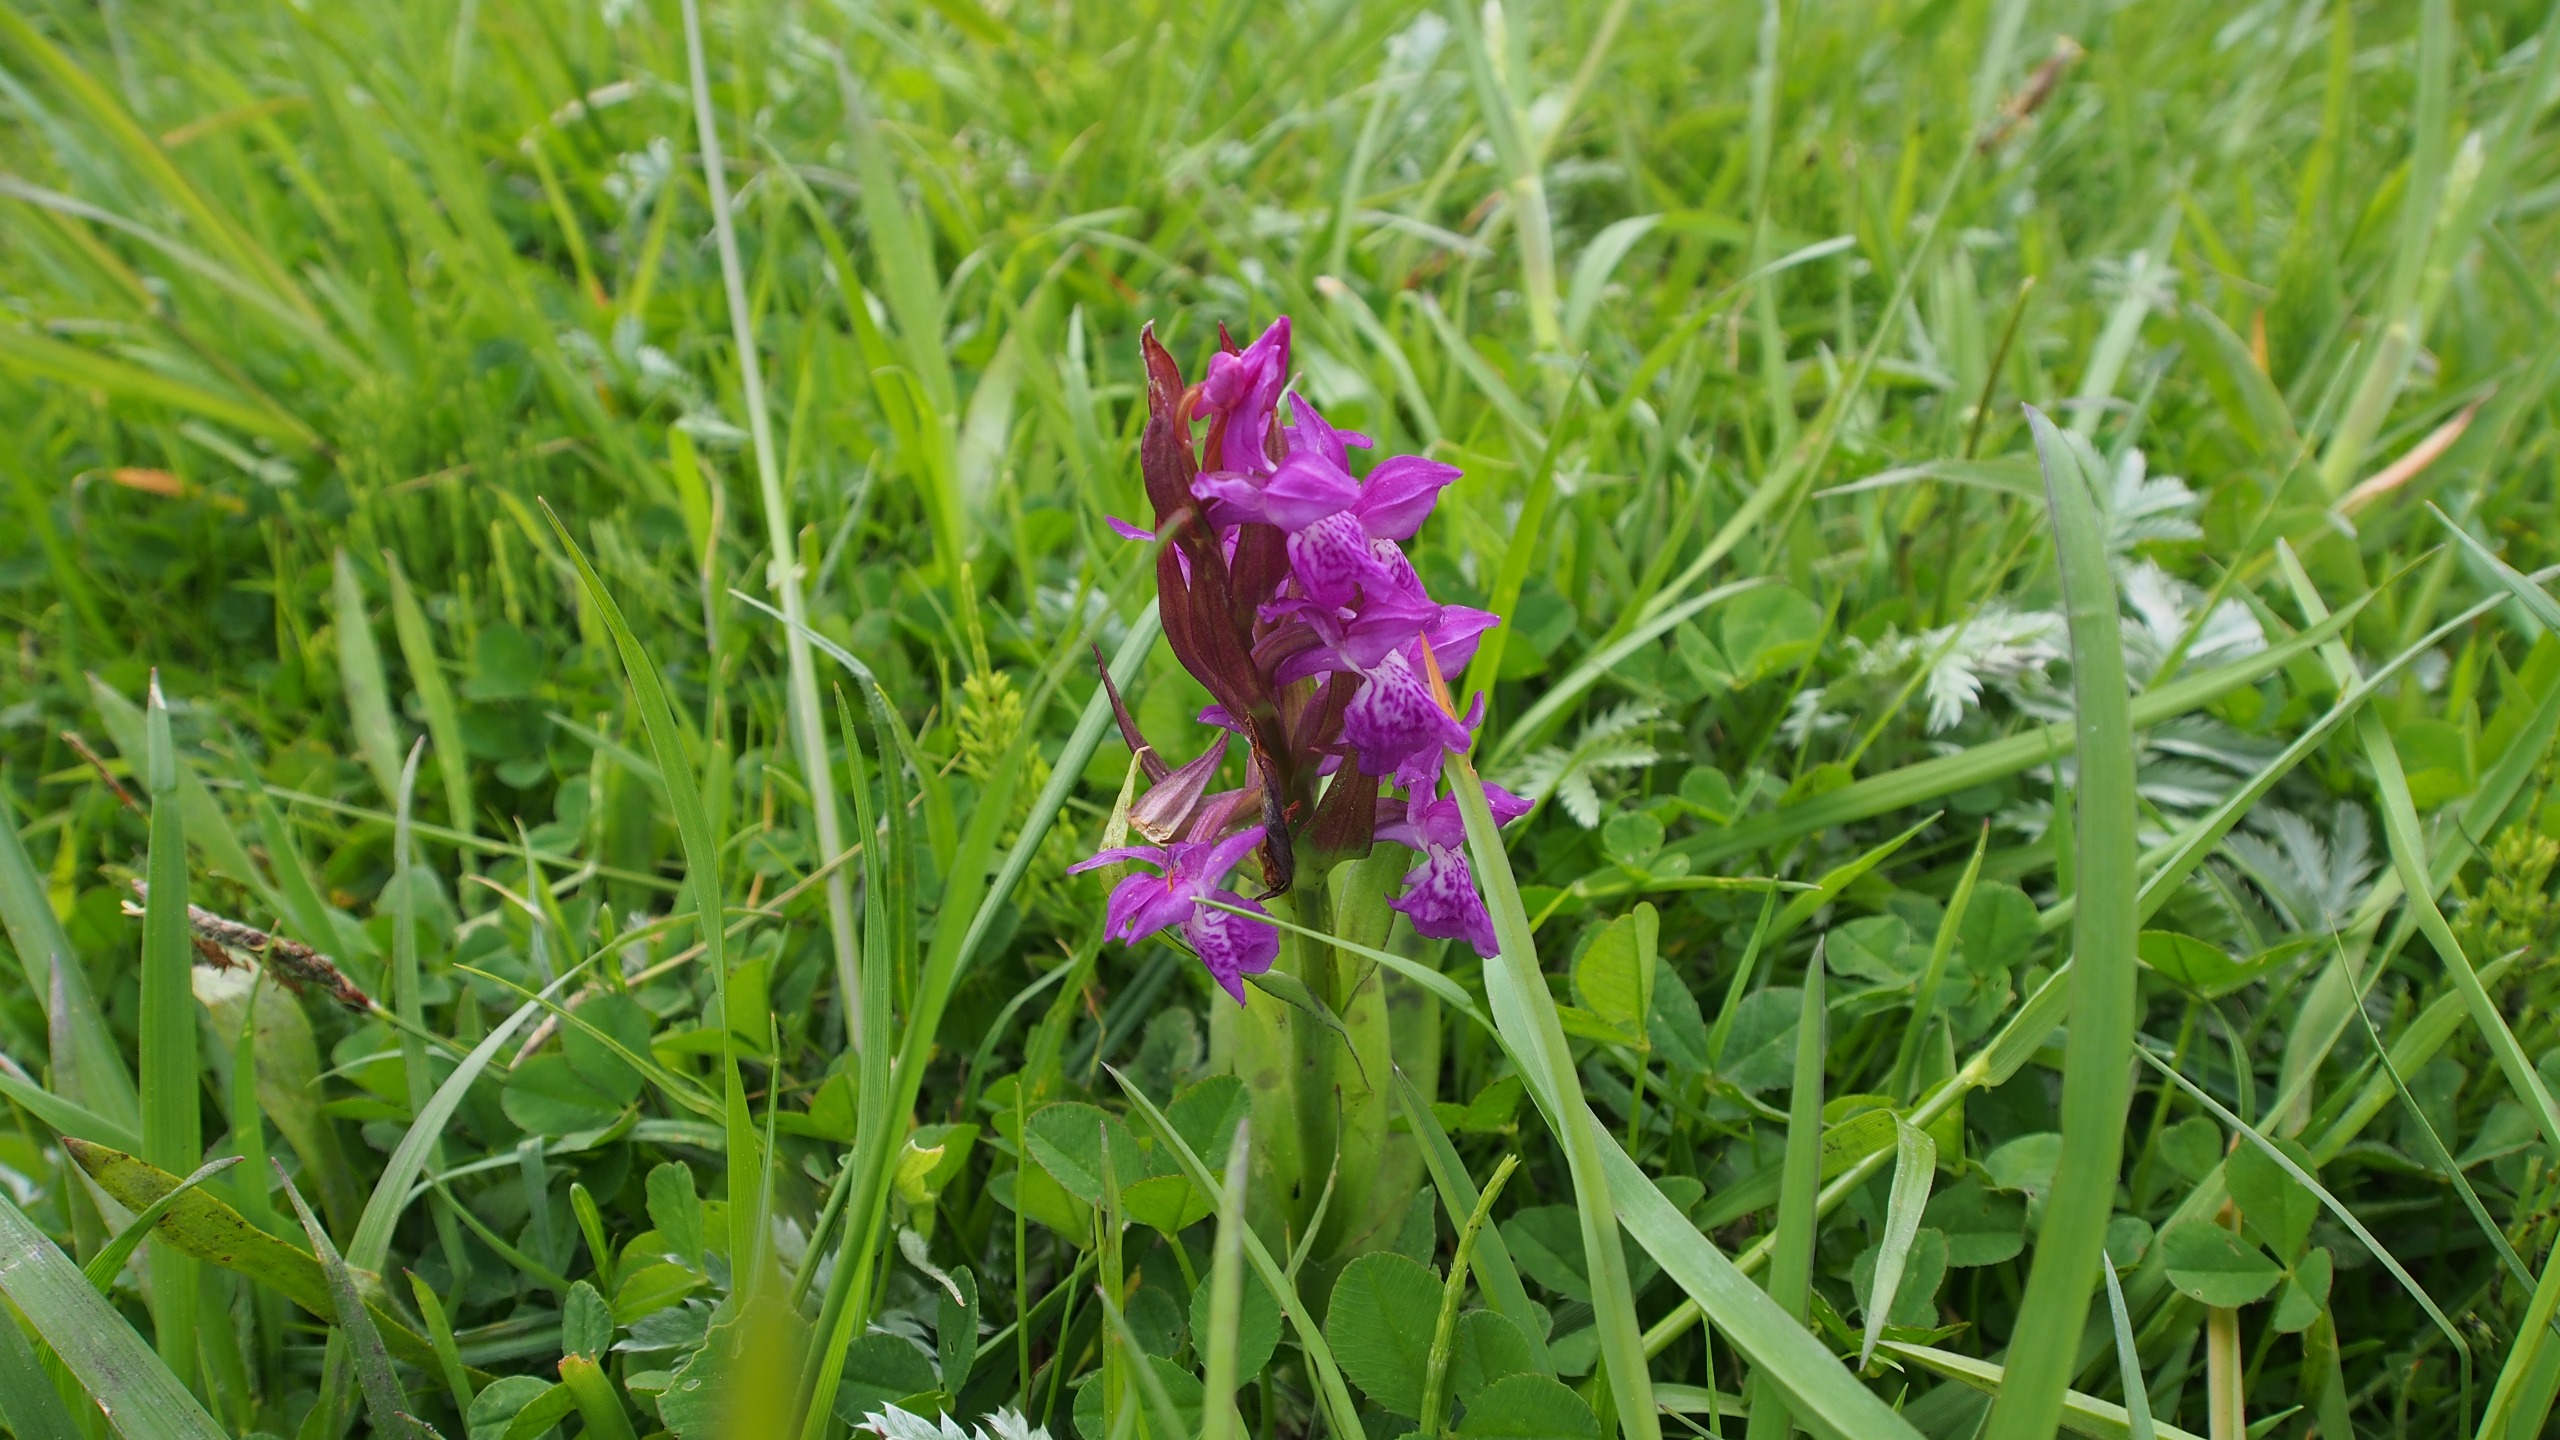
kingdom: Plantae
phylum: Tracheophyta
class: Liliopsida
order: Asparagales
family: Orchidaceae
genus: Dactylorhiza
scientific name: Dactylorhiza majalis
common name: Maj-gøgeurt
